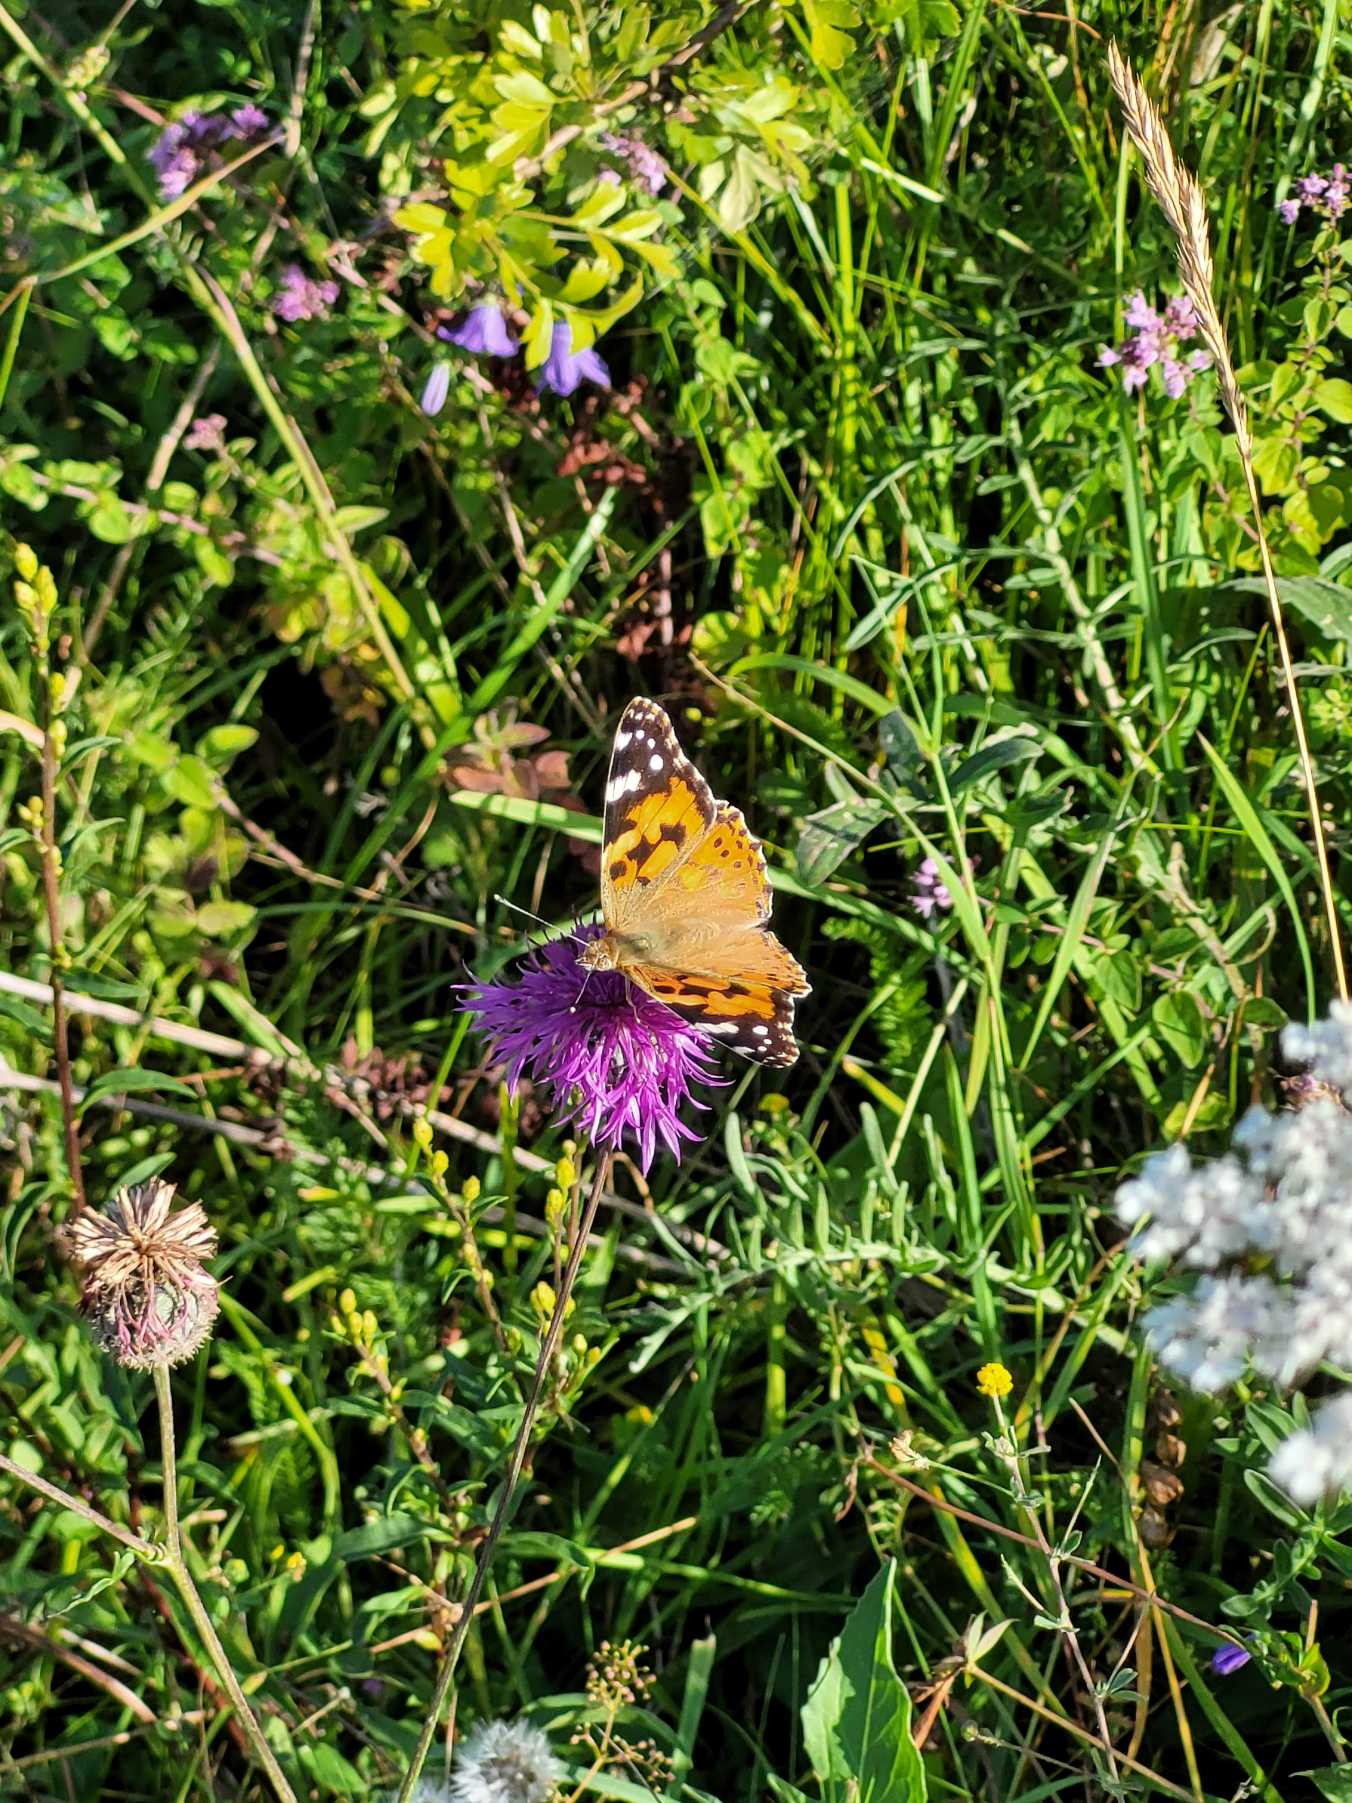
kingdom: Animalia
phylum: Arthropoda
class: Insecta
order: Lepidoptera
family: Nymphalidae
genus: Vanessa
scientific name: Vanessa cardui
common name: Tidselsommerfugl
